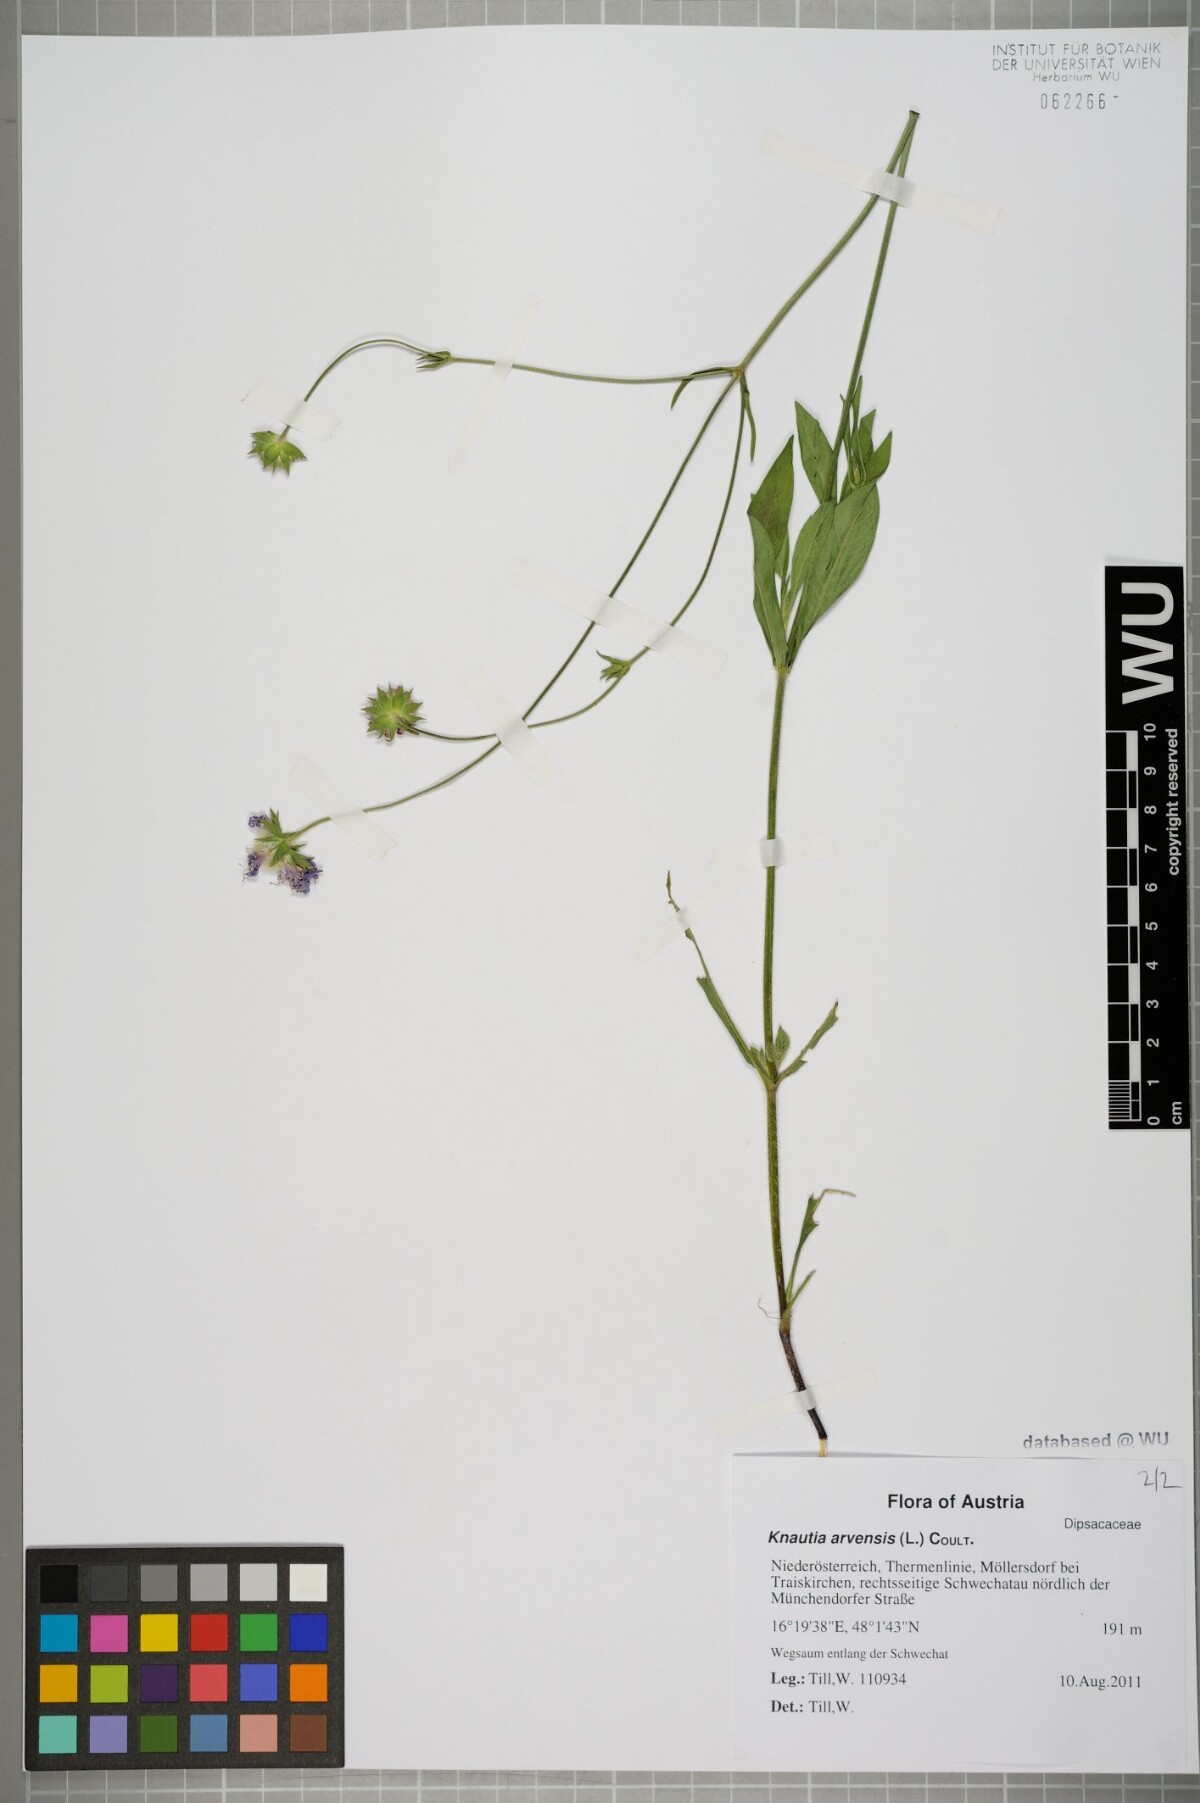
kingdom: Plantae
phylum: Tracheophyta
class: Magnoliopsida
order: Dipsacales
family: Caprifoliaceae
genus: Knautia
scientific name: Knautia arvensis
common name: Field scabiosa
